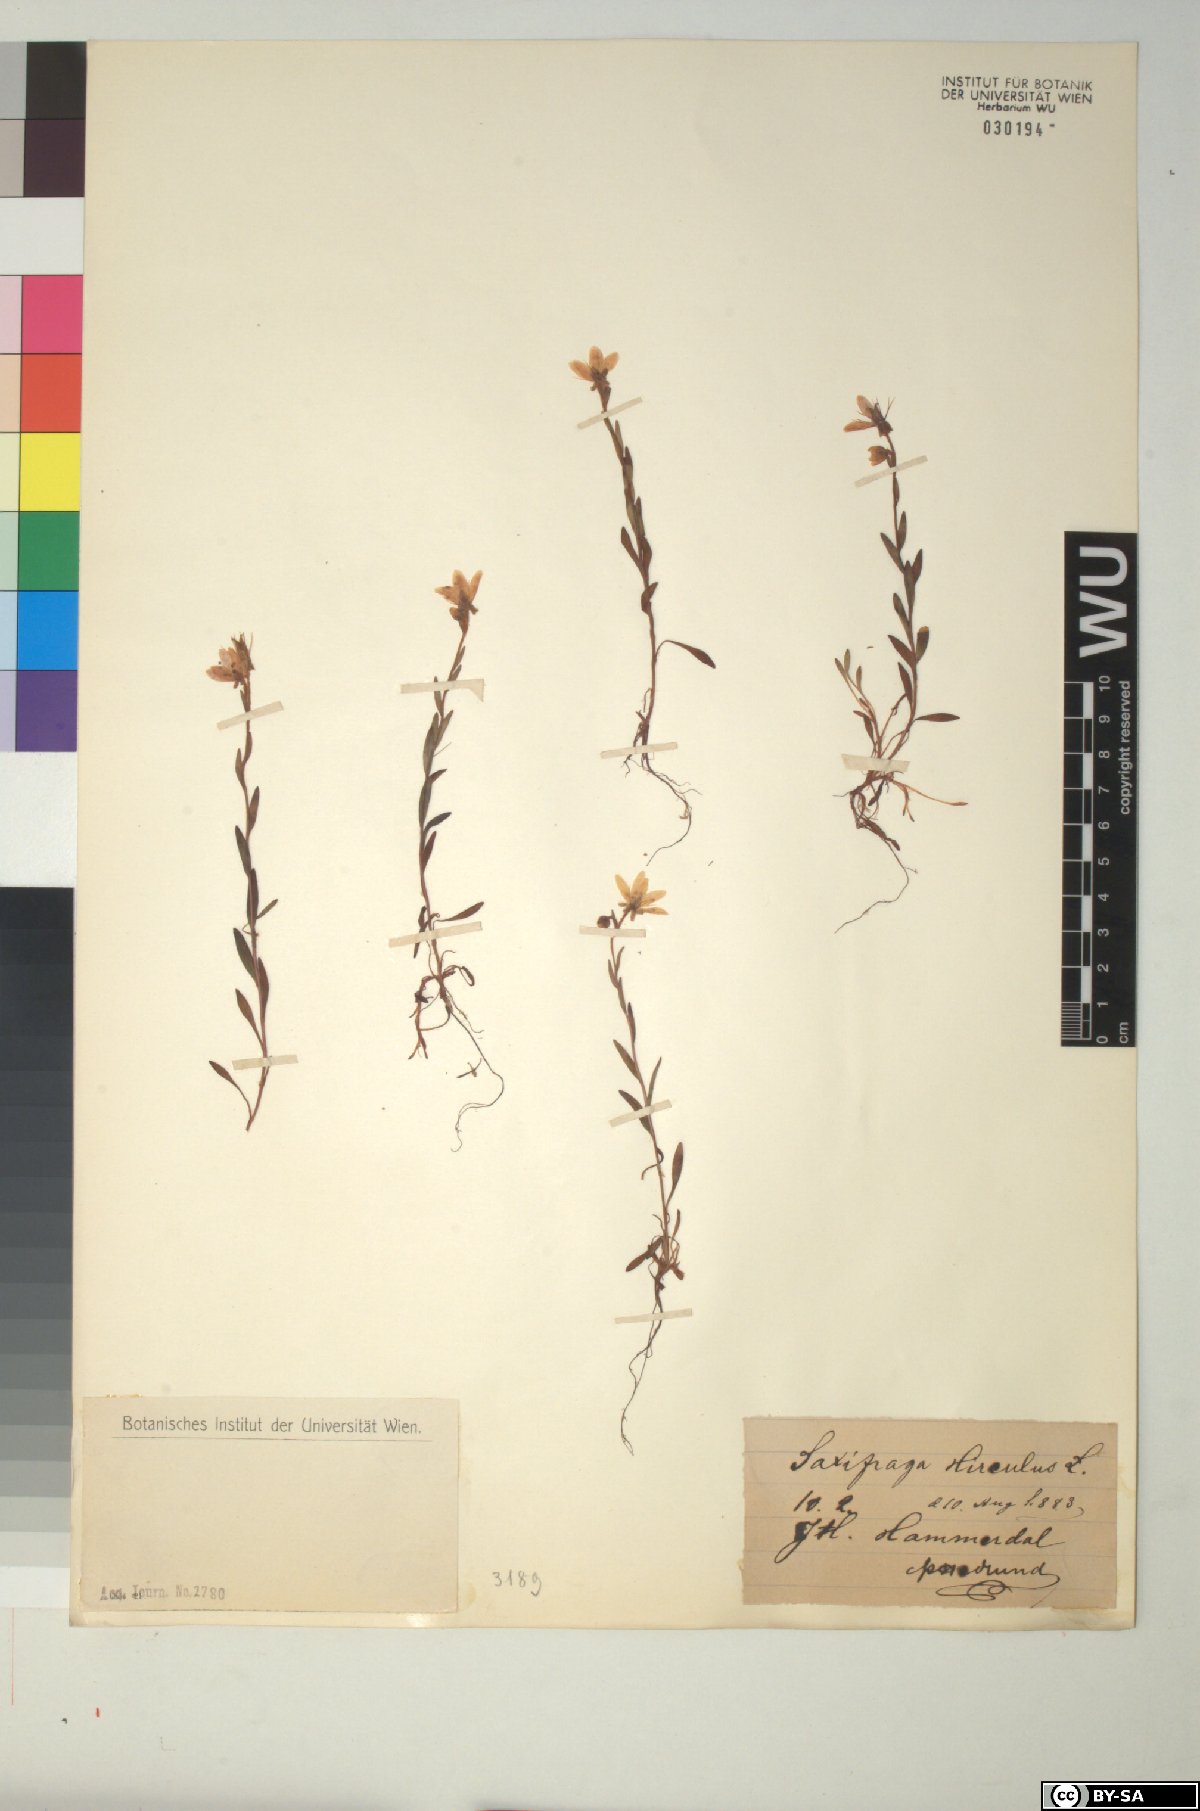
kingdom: Plantae
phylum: Tracheophyta
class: Magnoliopsida
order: Saxifragales
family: Saxifragaceae
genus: Saxifraga
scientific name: Saxifraga hirculus
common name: Yellow marsh saxifrage
